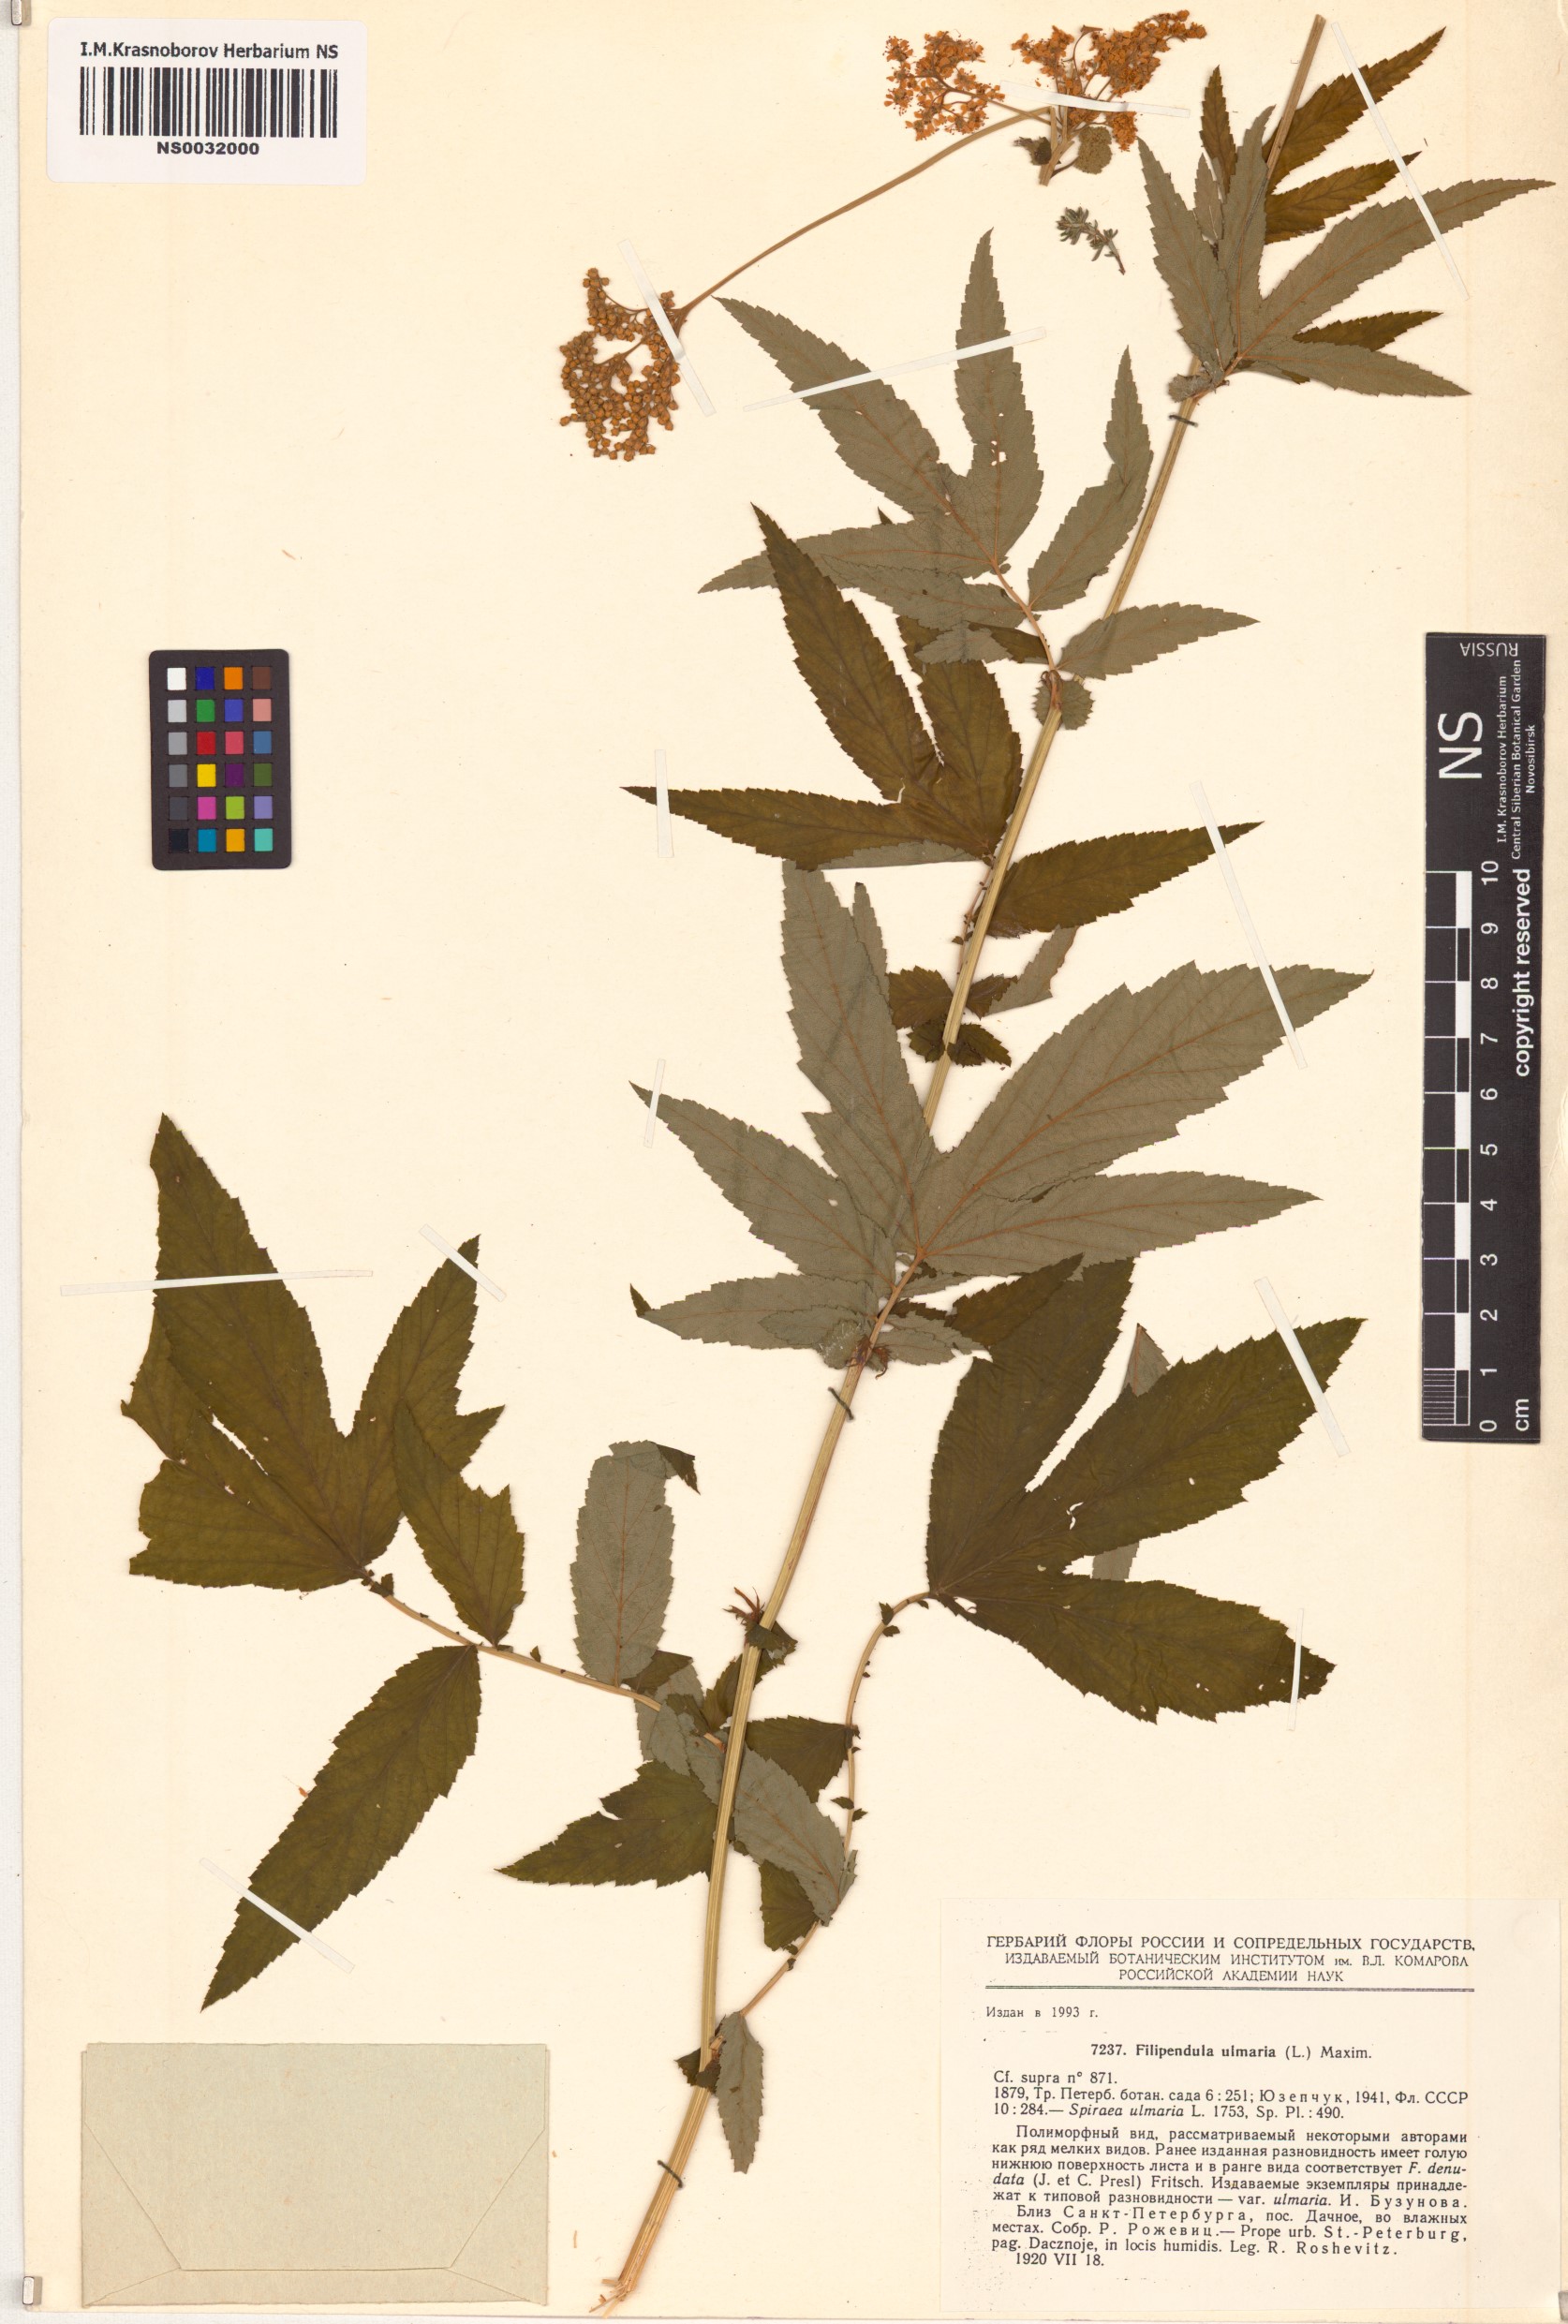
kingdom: Plantae
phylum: Tracheophyta
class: Magnoliopsida
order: Rosales
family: Rosaceae
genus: Filipendula
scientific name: Filipendula ulmaria
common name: Meadowsweet
